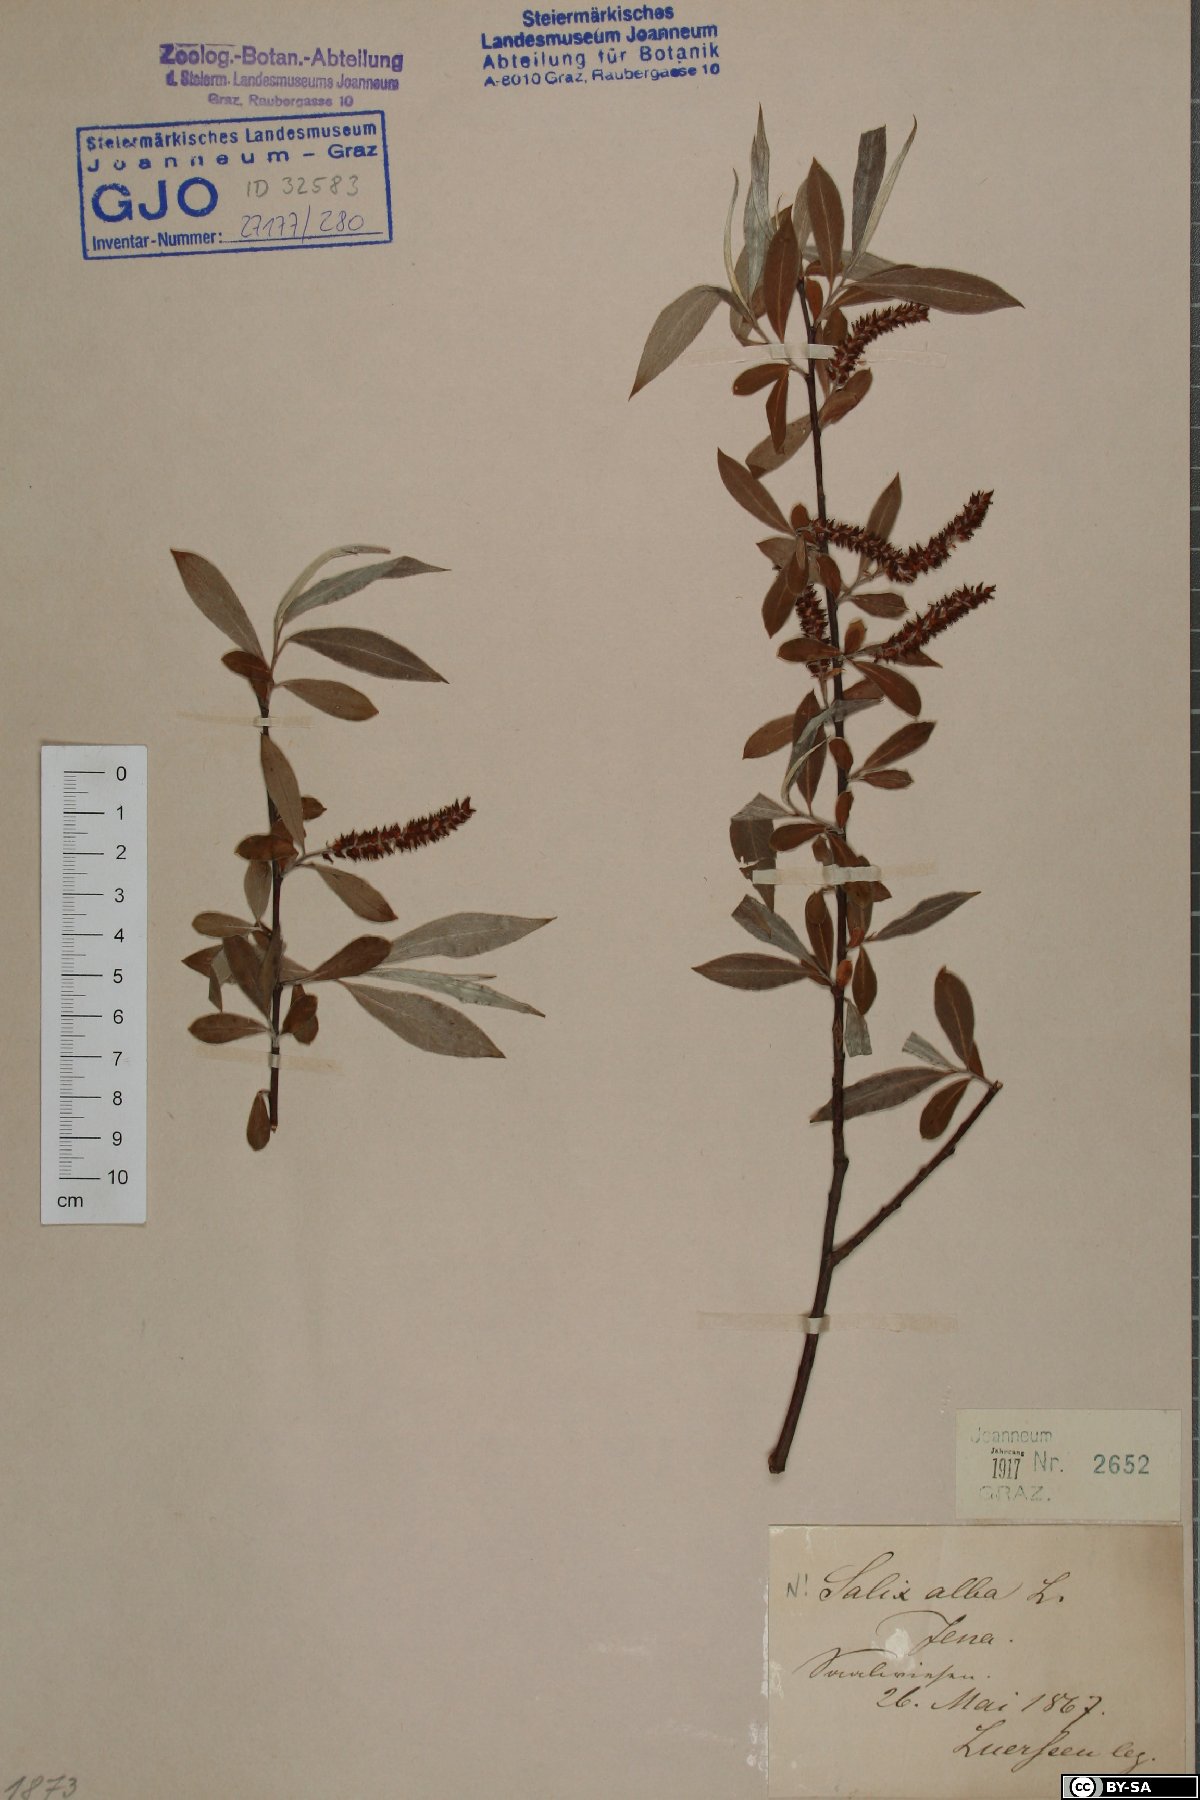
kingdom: Plantae
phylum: Tracheophyta
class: Magnoliopsida
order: Malpighiales
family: Salicaceae
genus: Salix
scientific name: Salix alba
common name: White willow
